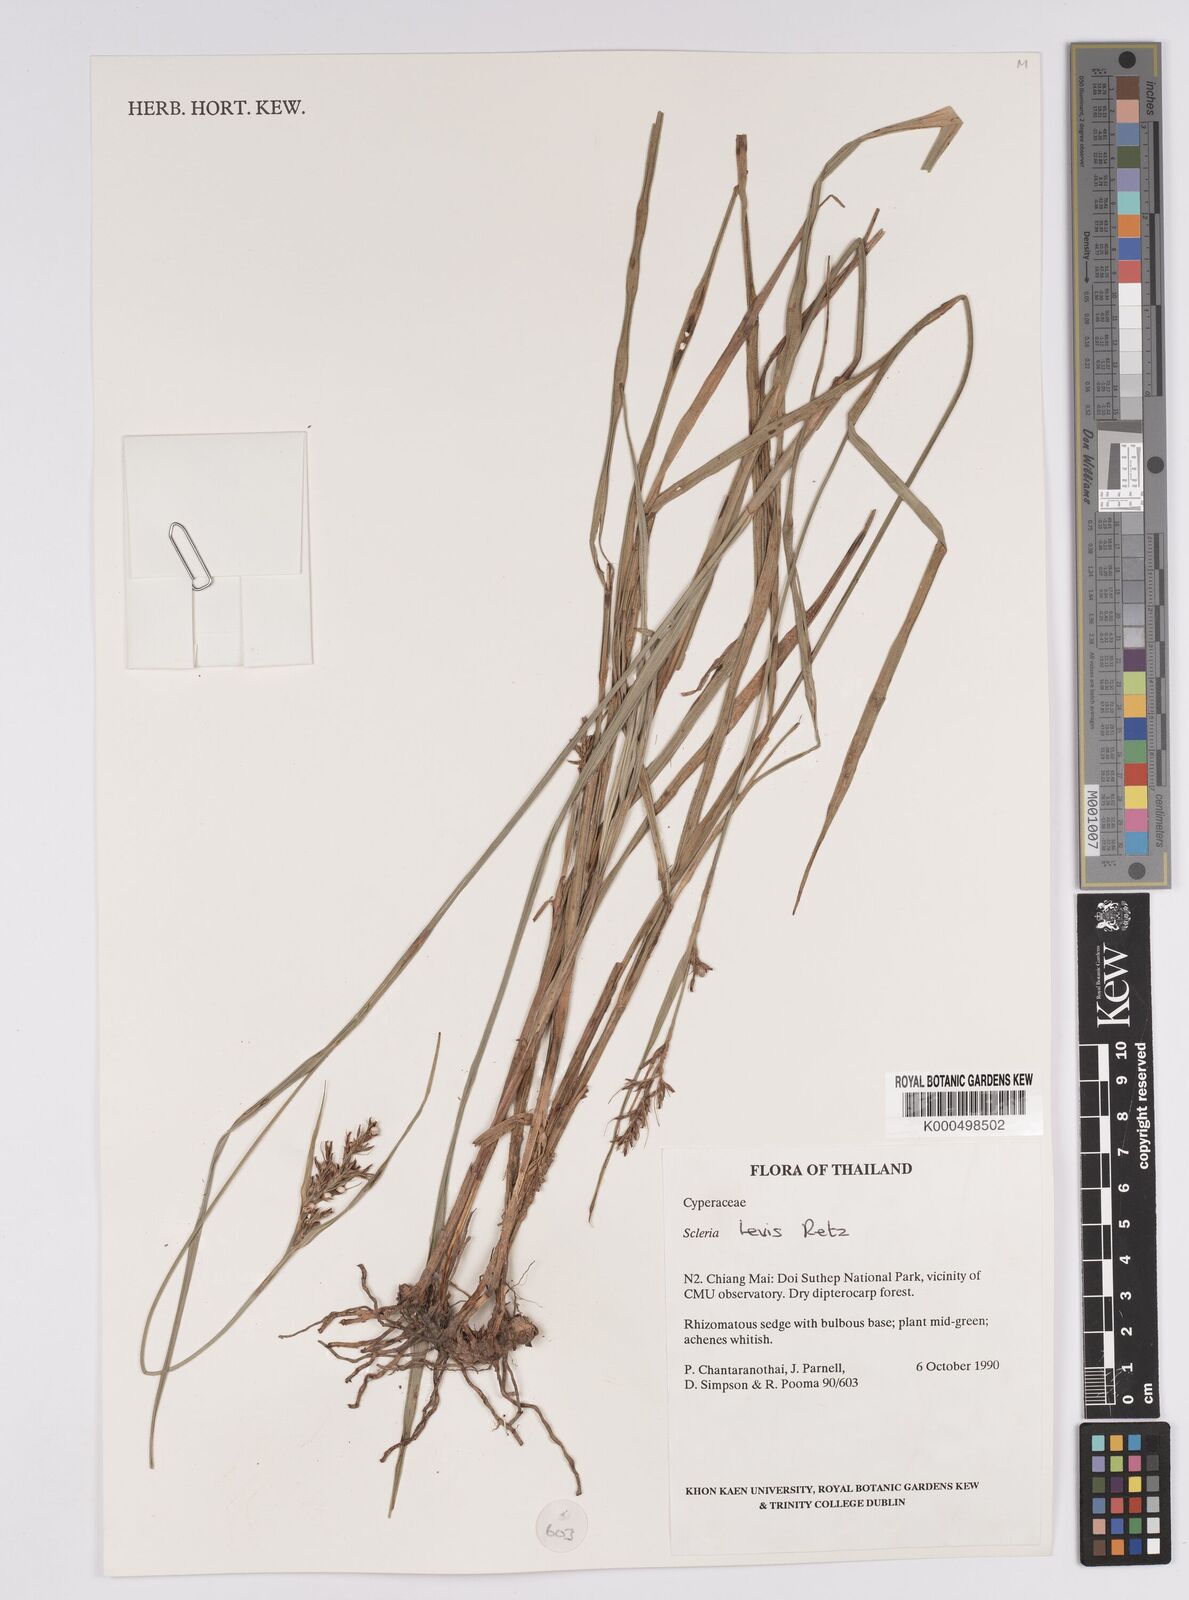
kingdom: Plantae
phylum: Tracheophyta
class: Liliopsida
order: Poales
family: Cyperaceae
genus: Scleria
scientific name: Scleria levis
